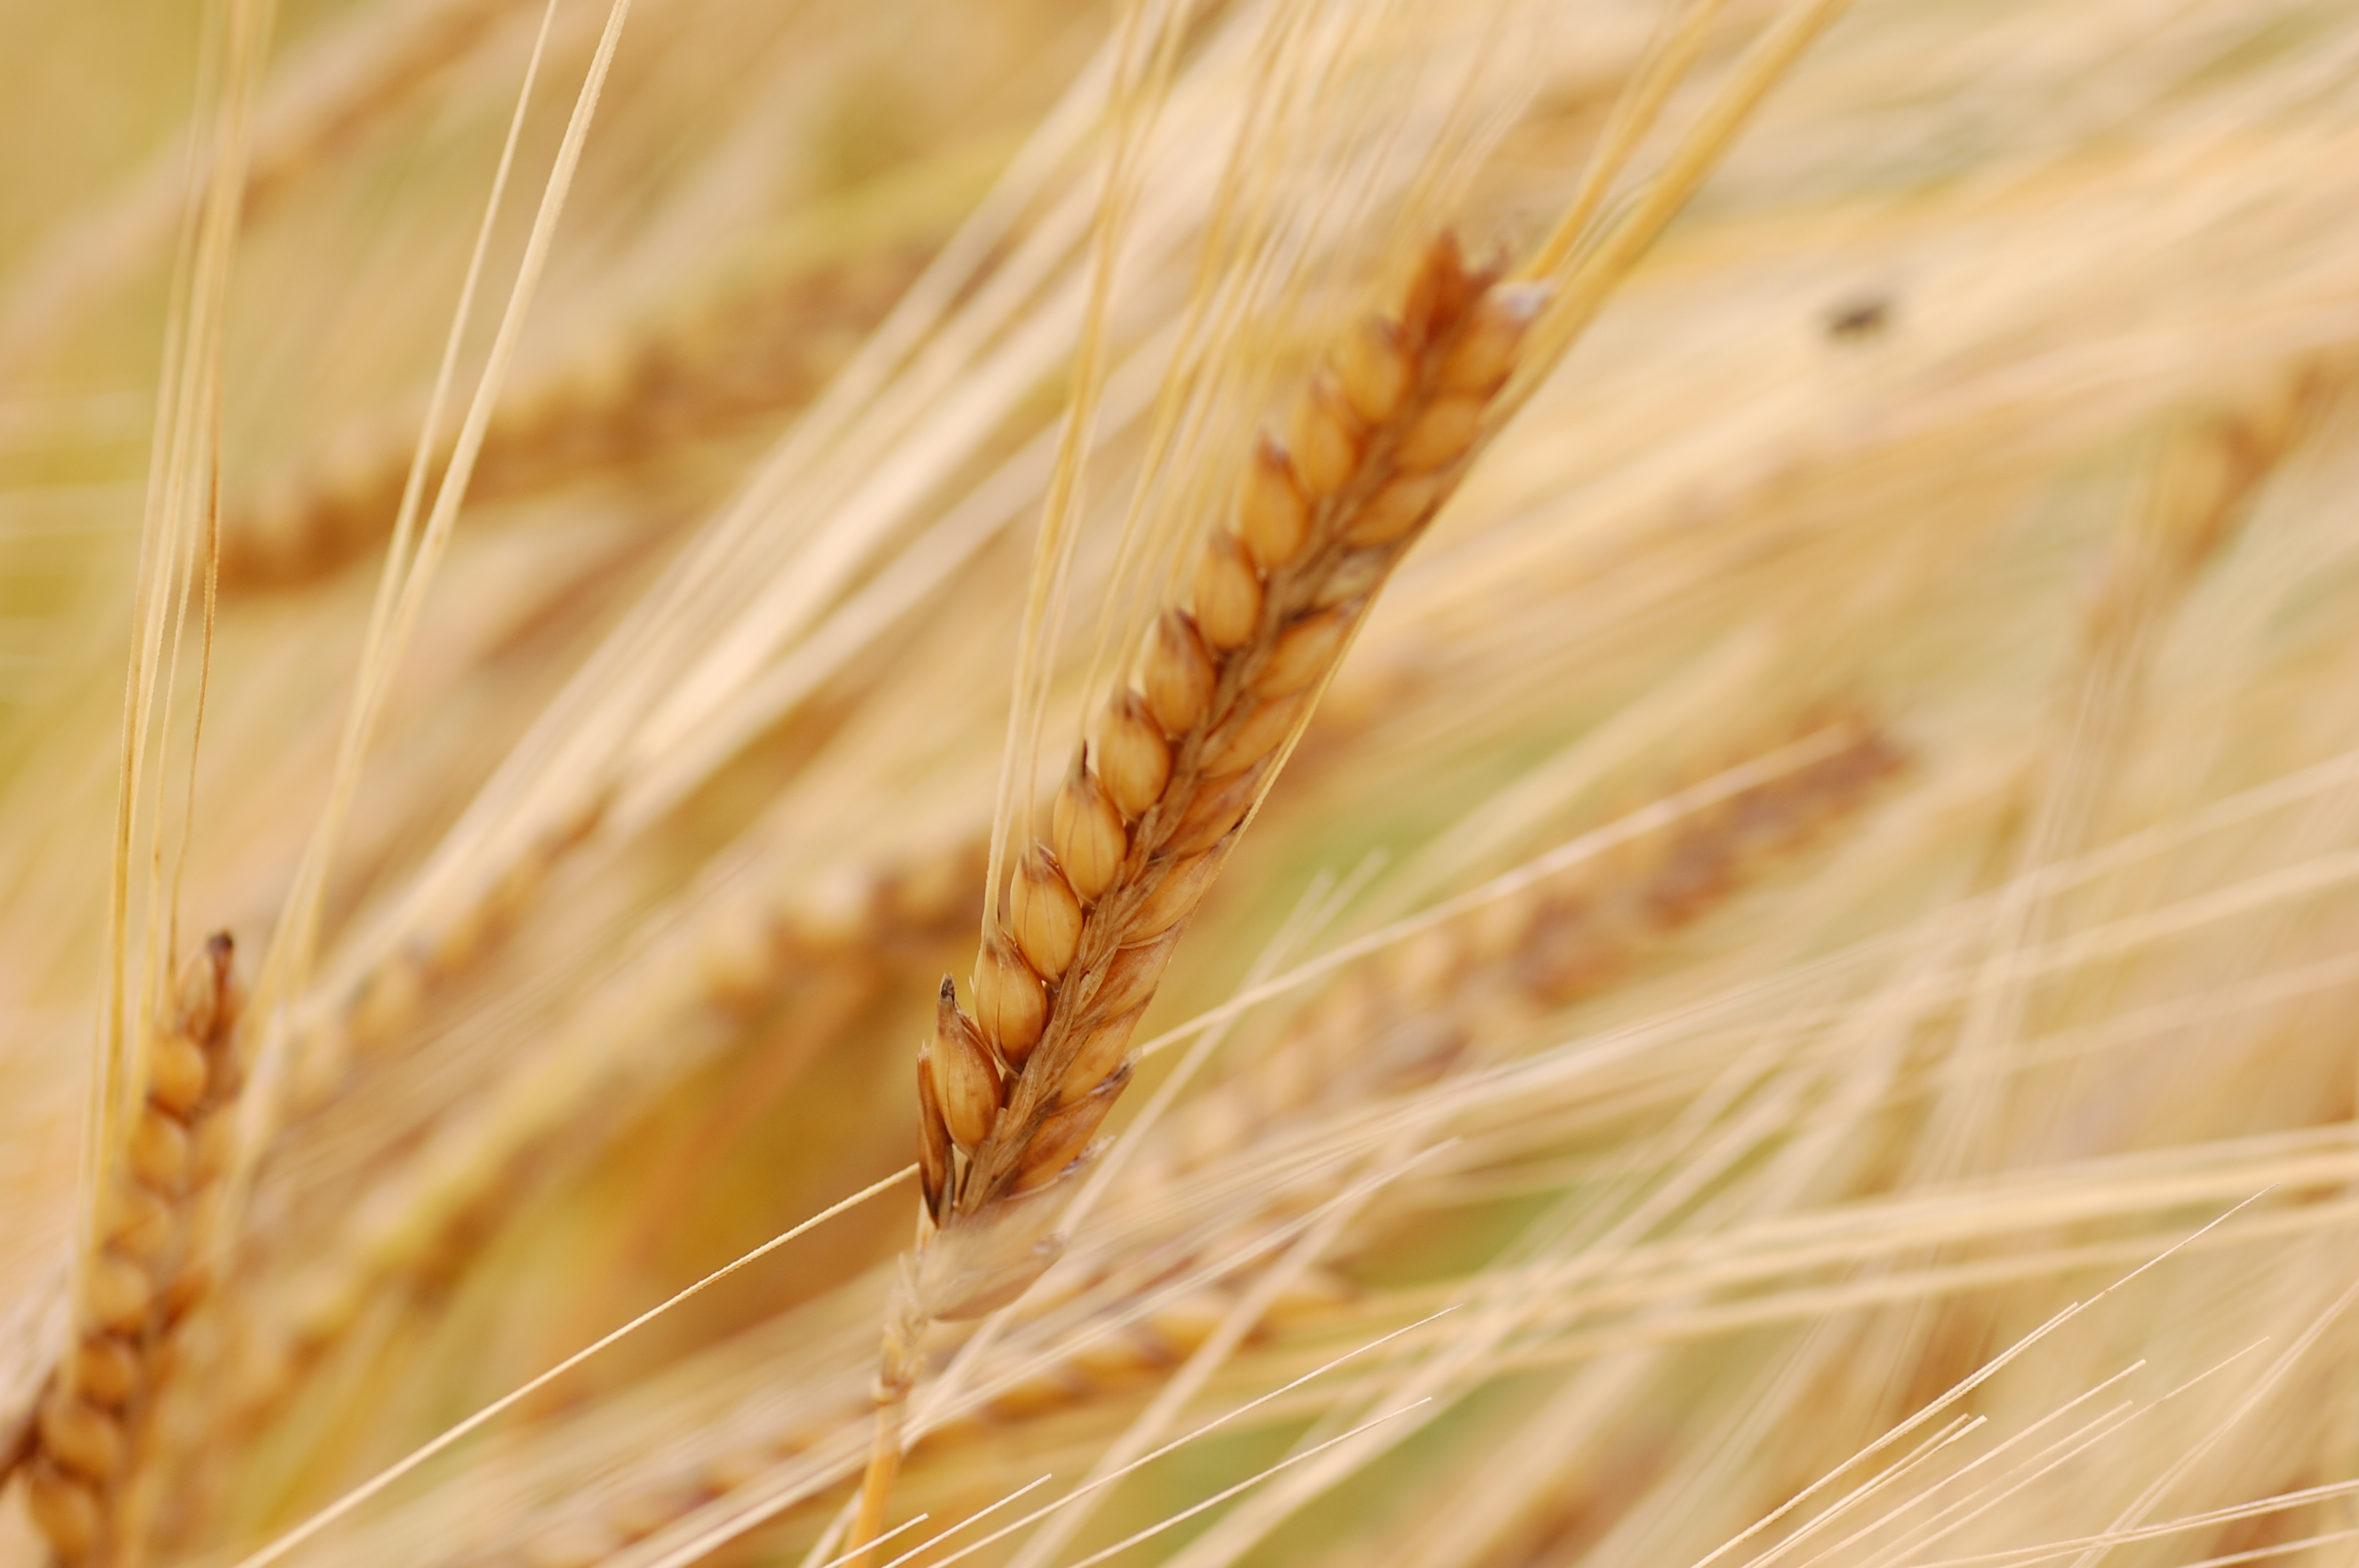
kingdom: Plantae
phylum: Tracheophyta
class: Liliopsida
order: Poales
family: Poaceae
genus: Hordeum
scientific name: Hordeum vulgare
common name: Common barley
